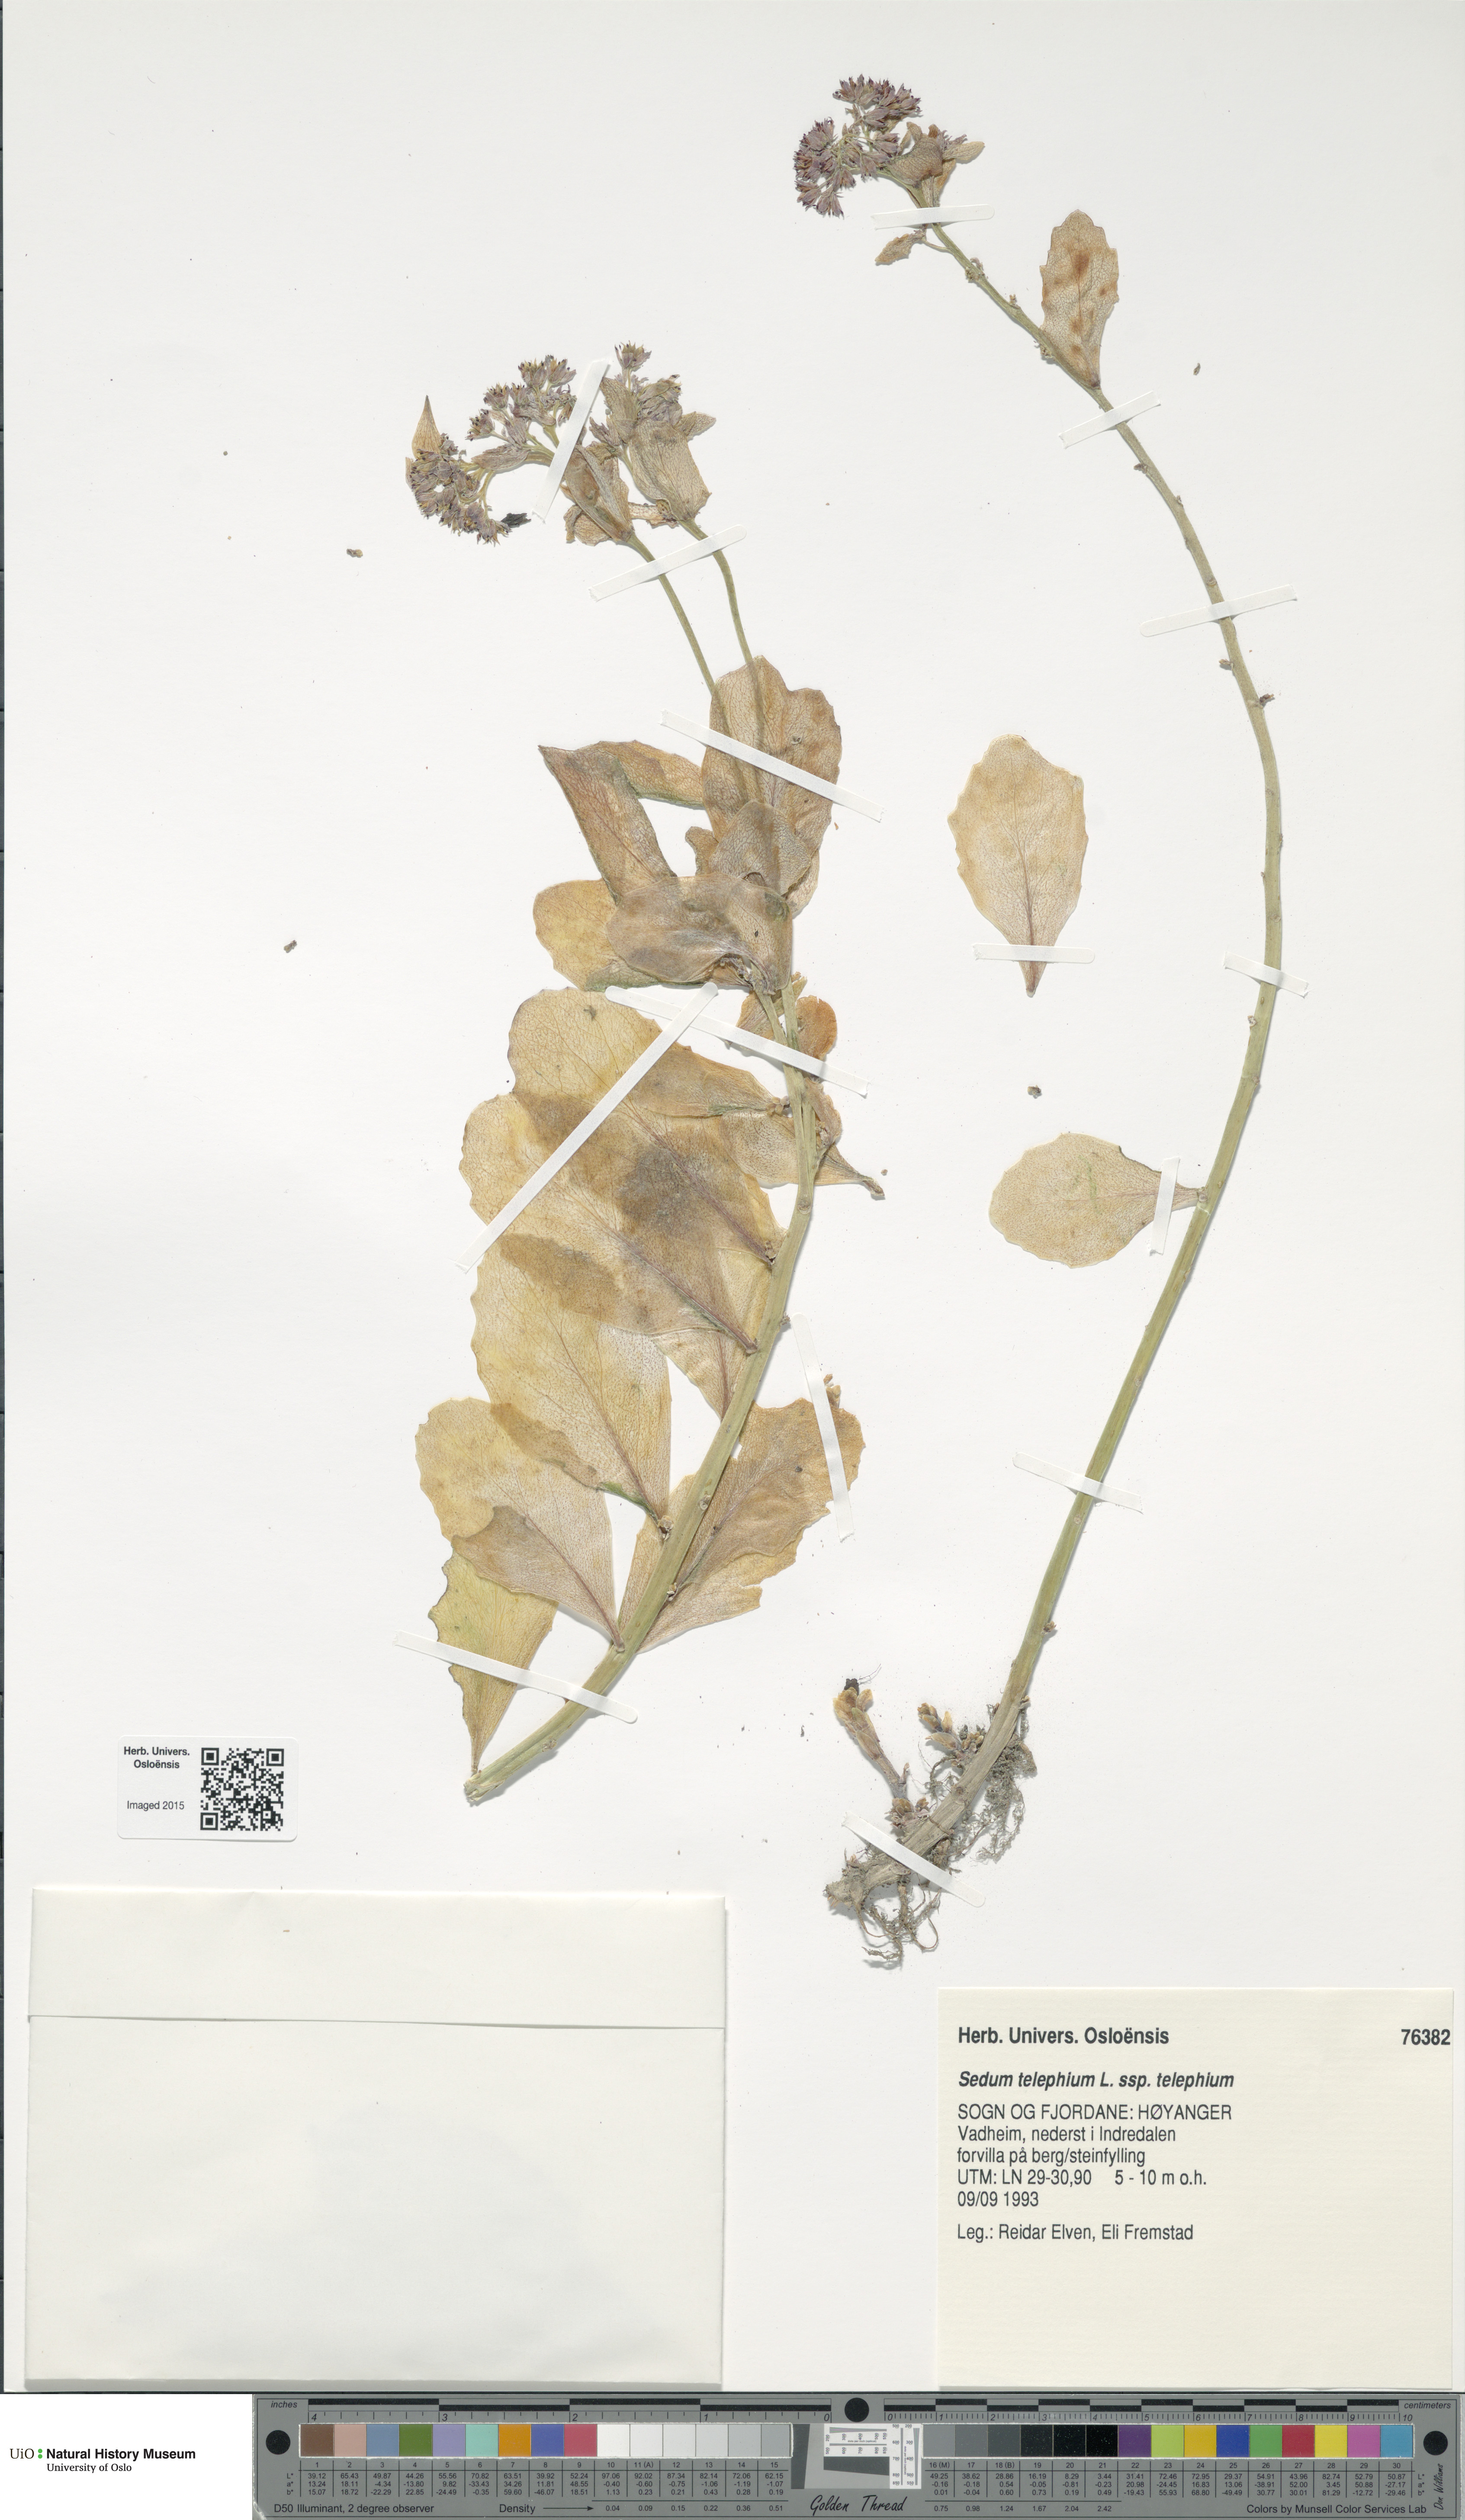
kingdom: Plantae
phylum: Tracheophyta
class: Magnoliopsida
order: Saxifragales
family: Crassulaceae
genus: Hylotelephium
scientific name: Hylotelephium telephium
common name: Live-forever
